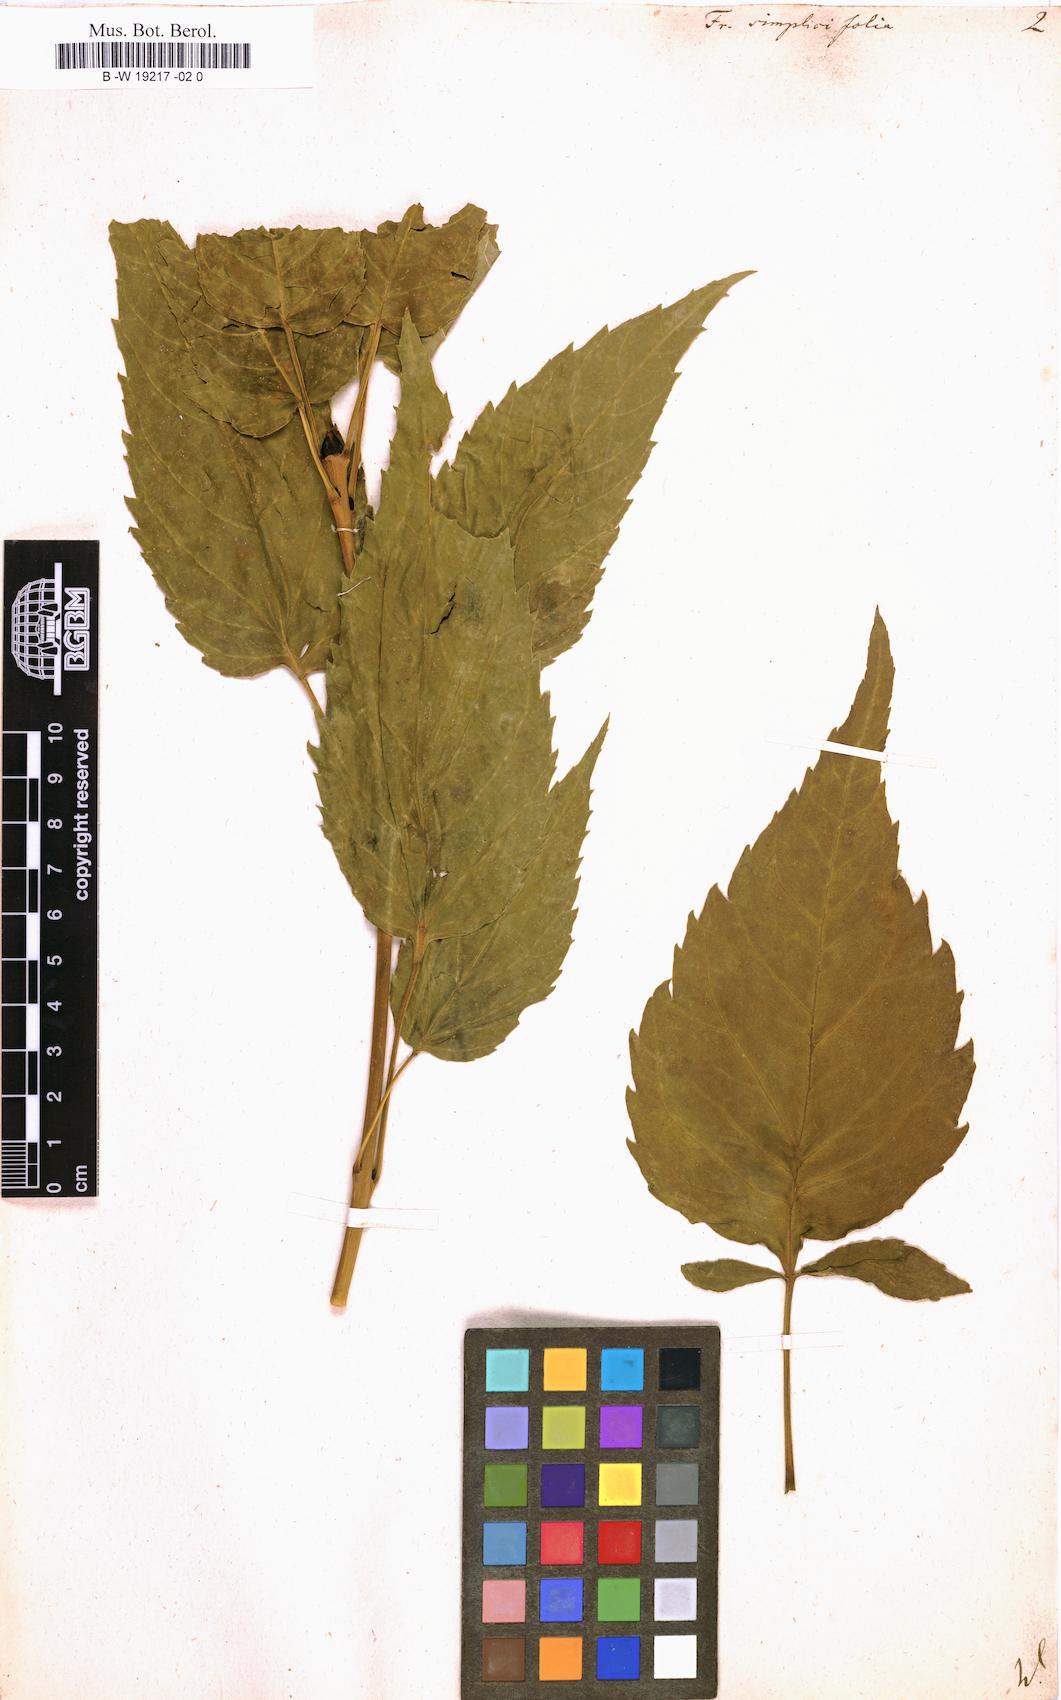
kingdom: Plantae
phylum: Tracheophyta
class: Magnoliopsida
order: Lamiales
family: Oleaceae
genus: Fraxinus
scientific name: Fraxinus excelsior
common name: European ash
